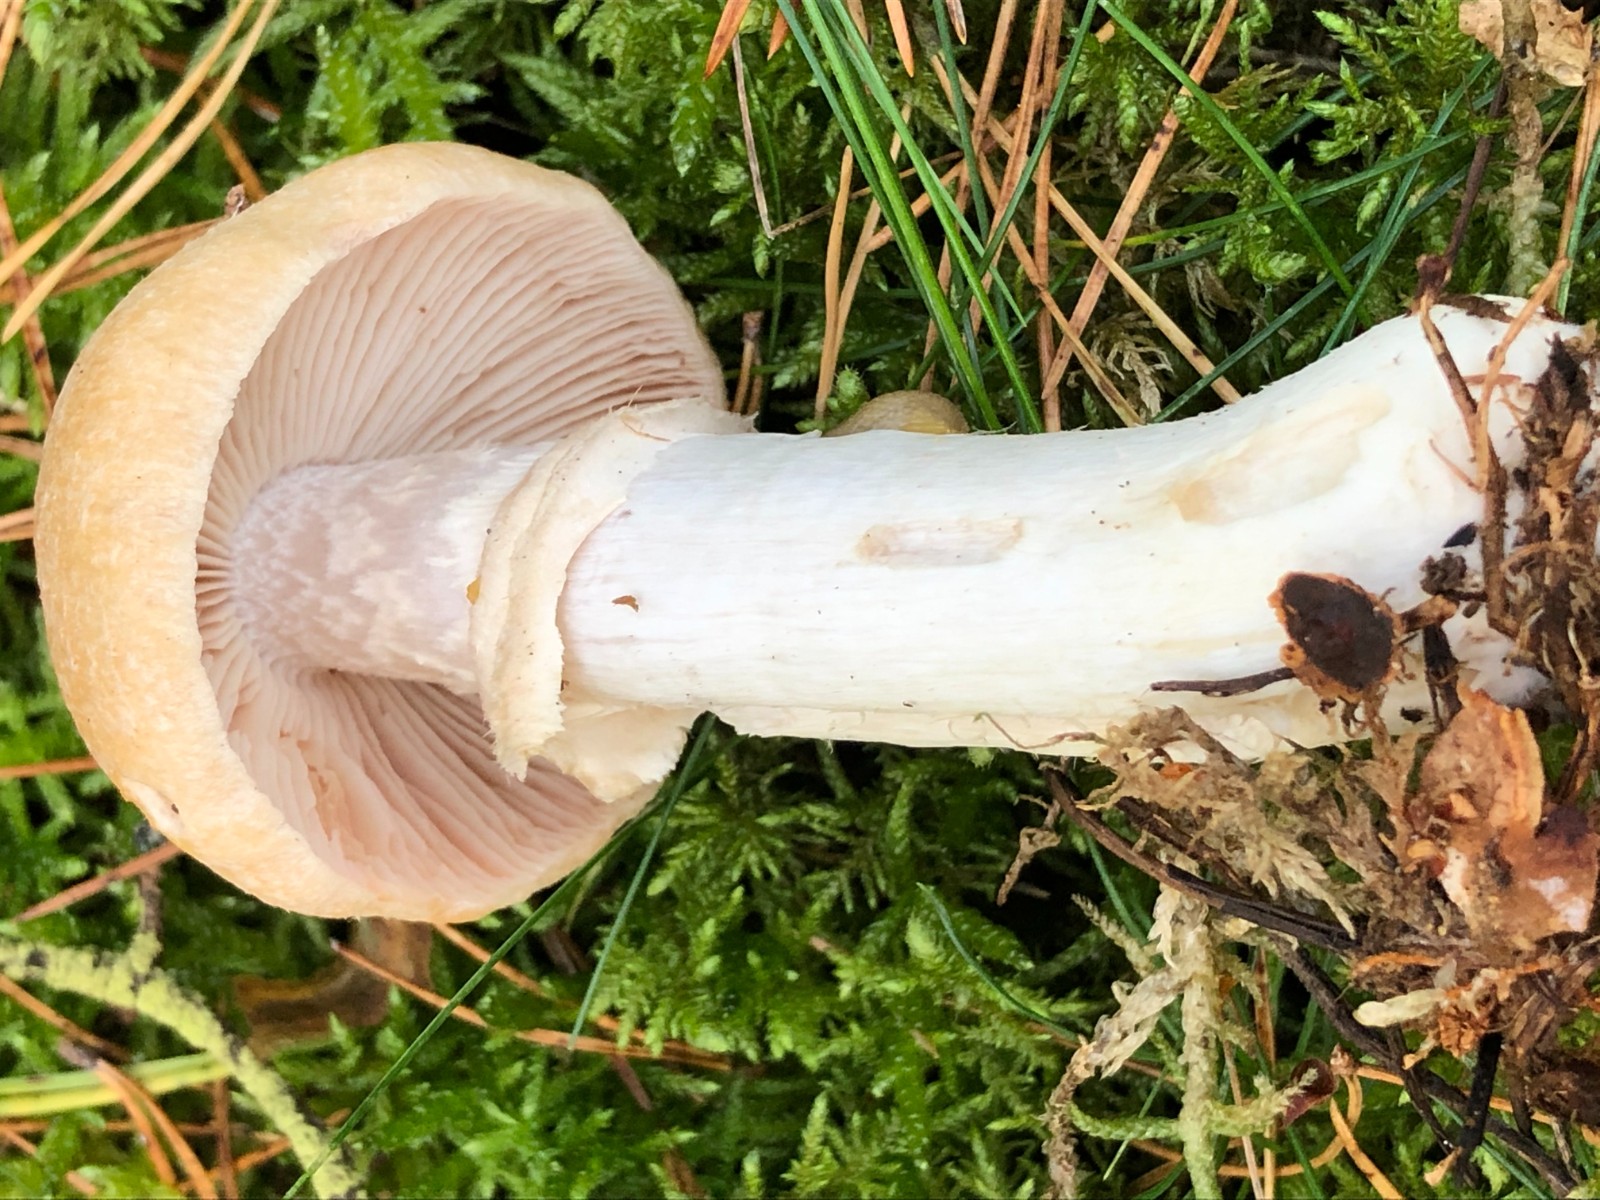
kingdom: Fungi
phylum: Basidiomycota
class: Agaricomycetes
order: Agaricales
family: Cortinariaceae
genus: Cortinarius
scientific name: Cortinarius caperatus
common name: klidhat
